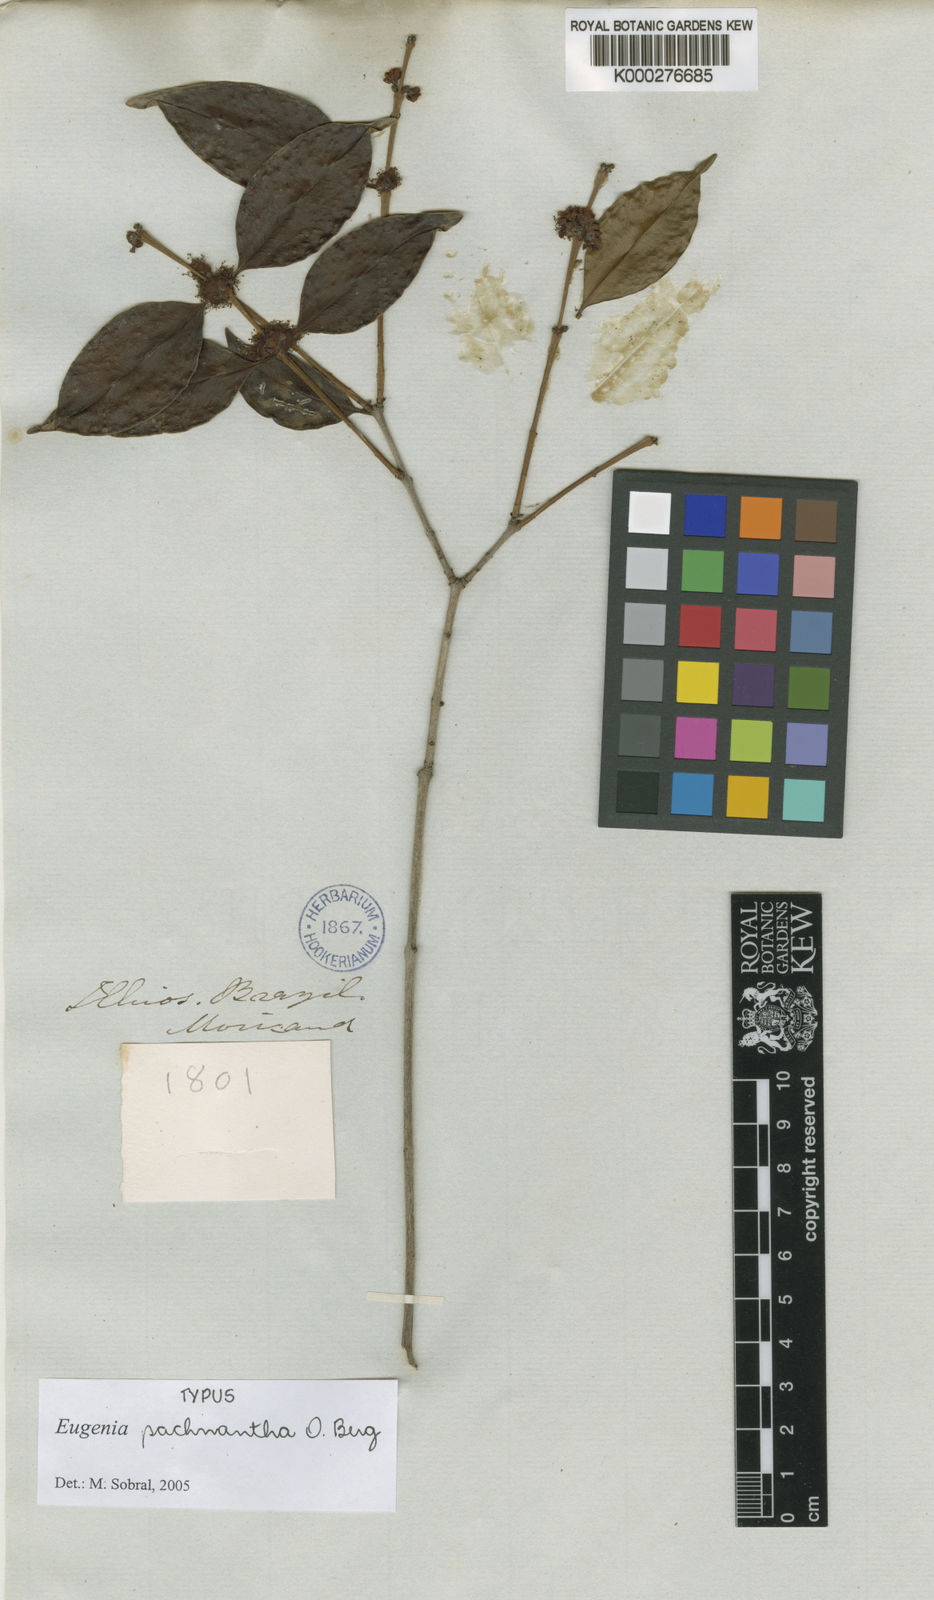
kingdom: Plantae
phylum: Tracheophyta
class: Magnoliopsida
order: Myrtales
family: Myrtaceae
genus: Eugenia
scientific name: Eugenia pachnantha
